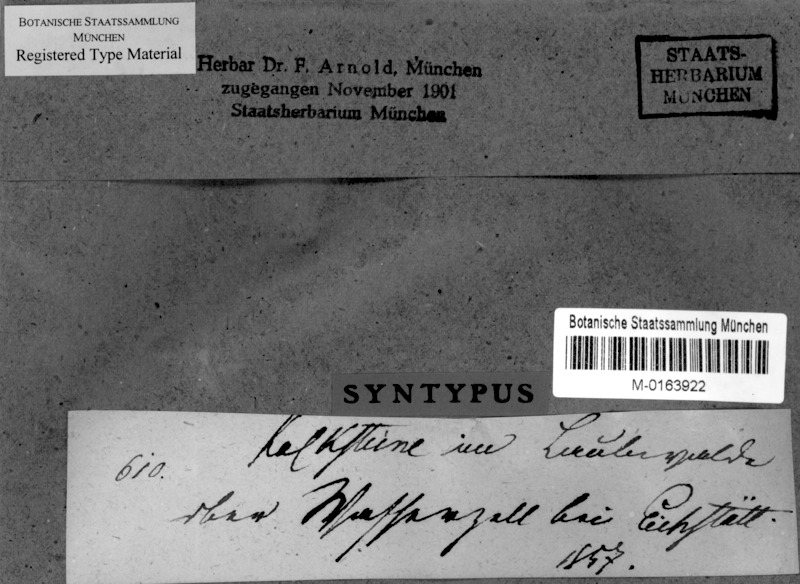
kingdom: Fungi
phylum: Ascomycota
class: Eurotiomycetes
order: Verrucariales
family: Verrucariaceae
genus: Verrucaria
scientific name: Verrucaria maculiformis
